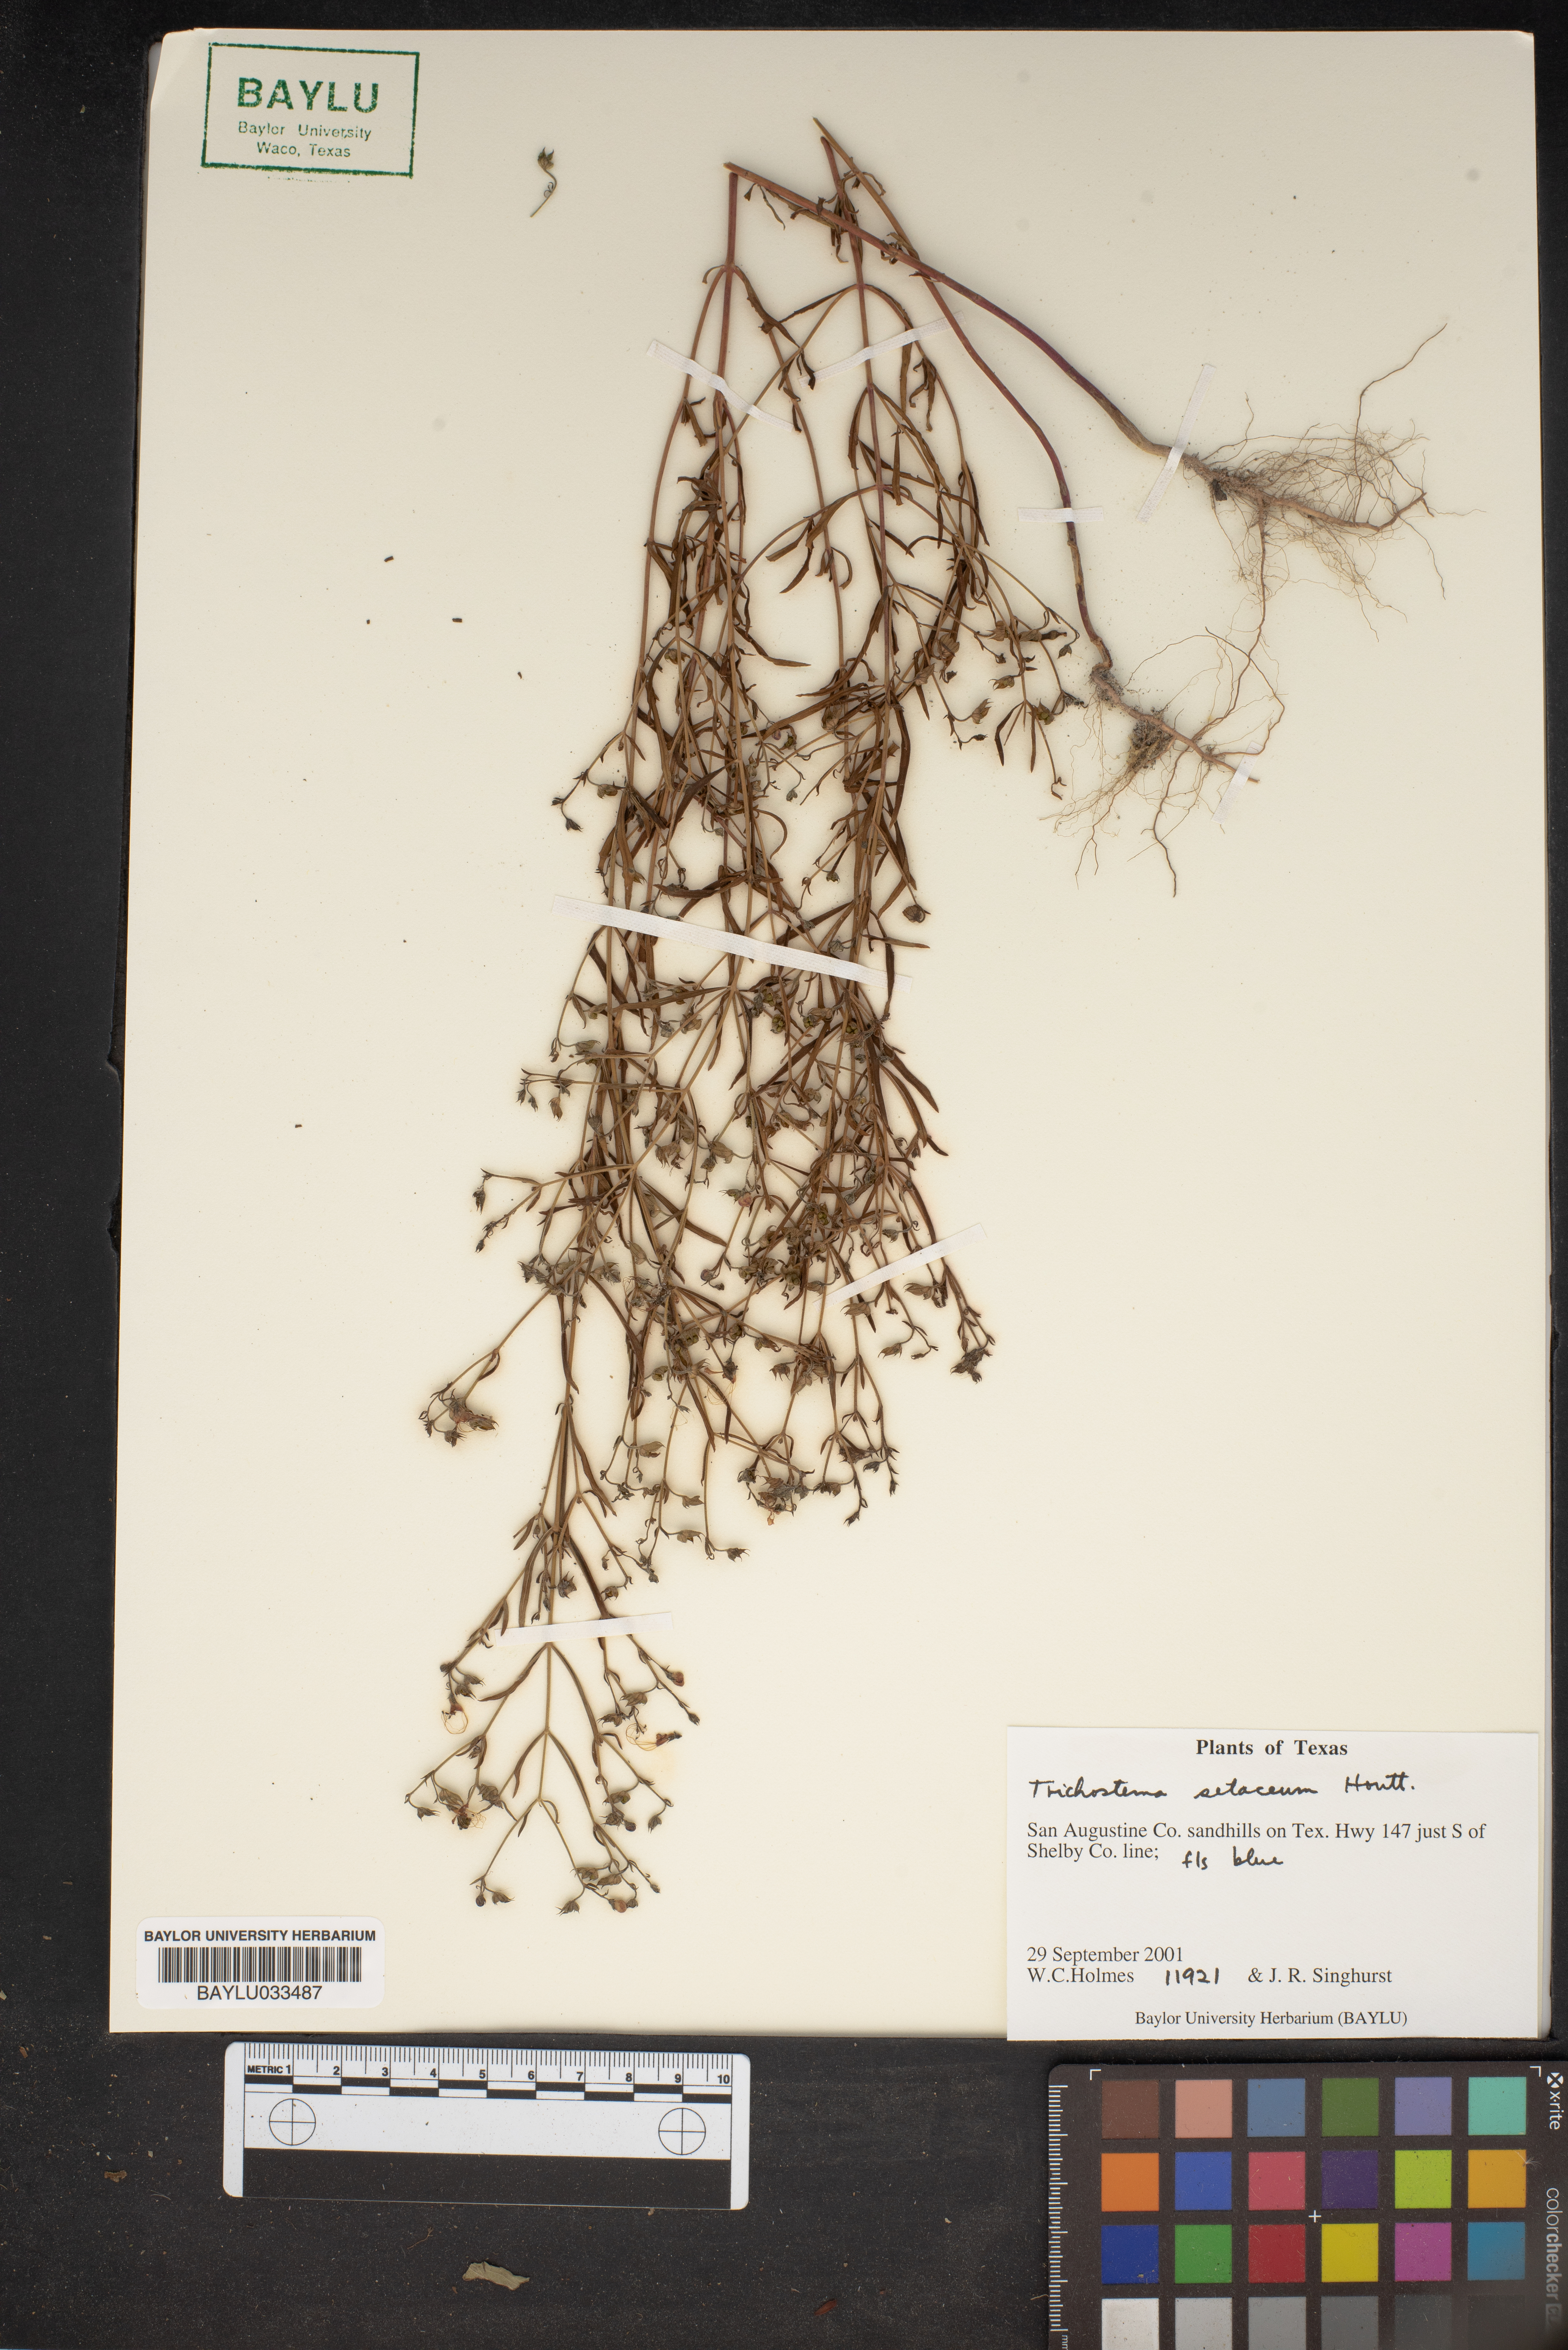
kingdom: Plantae
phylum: Tracheophyta
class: Magnoliopsida
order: Lamiales
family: Lamiaceae
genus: Trichostema
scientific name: Trichostema setaceum
